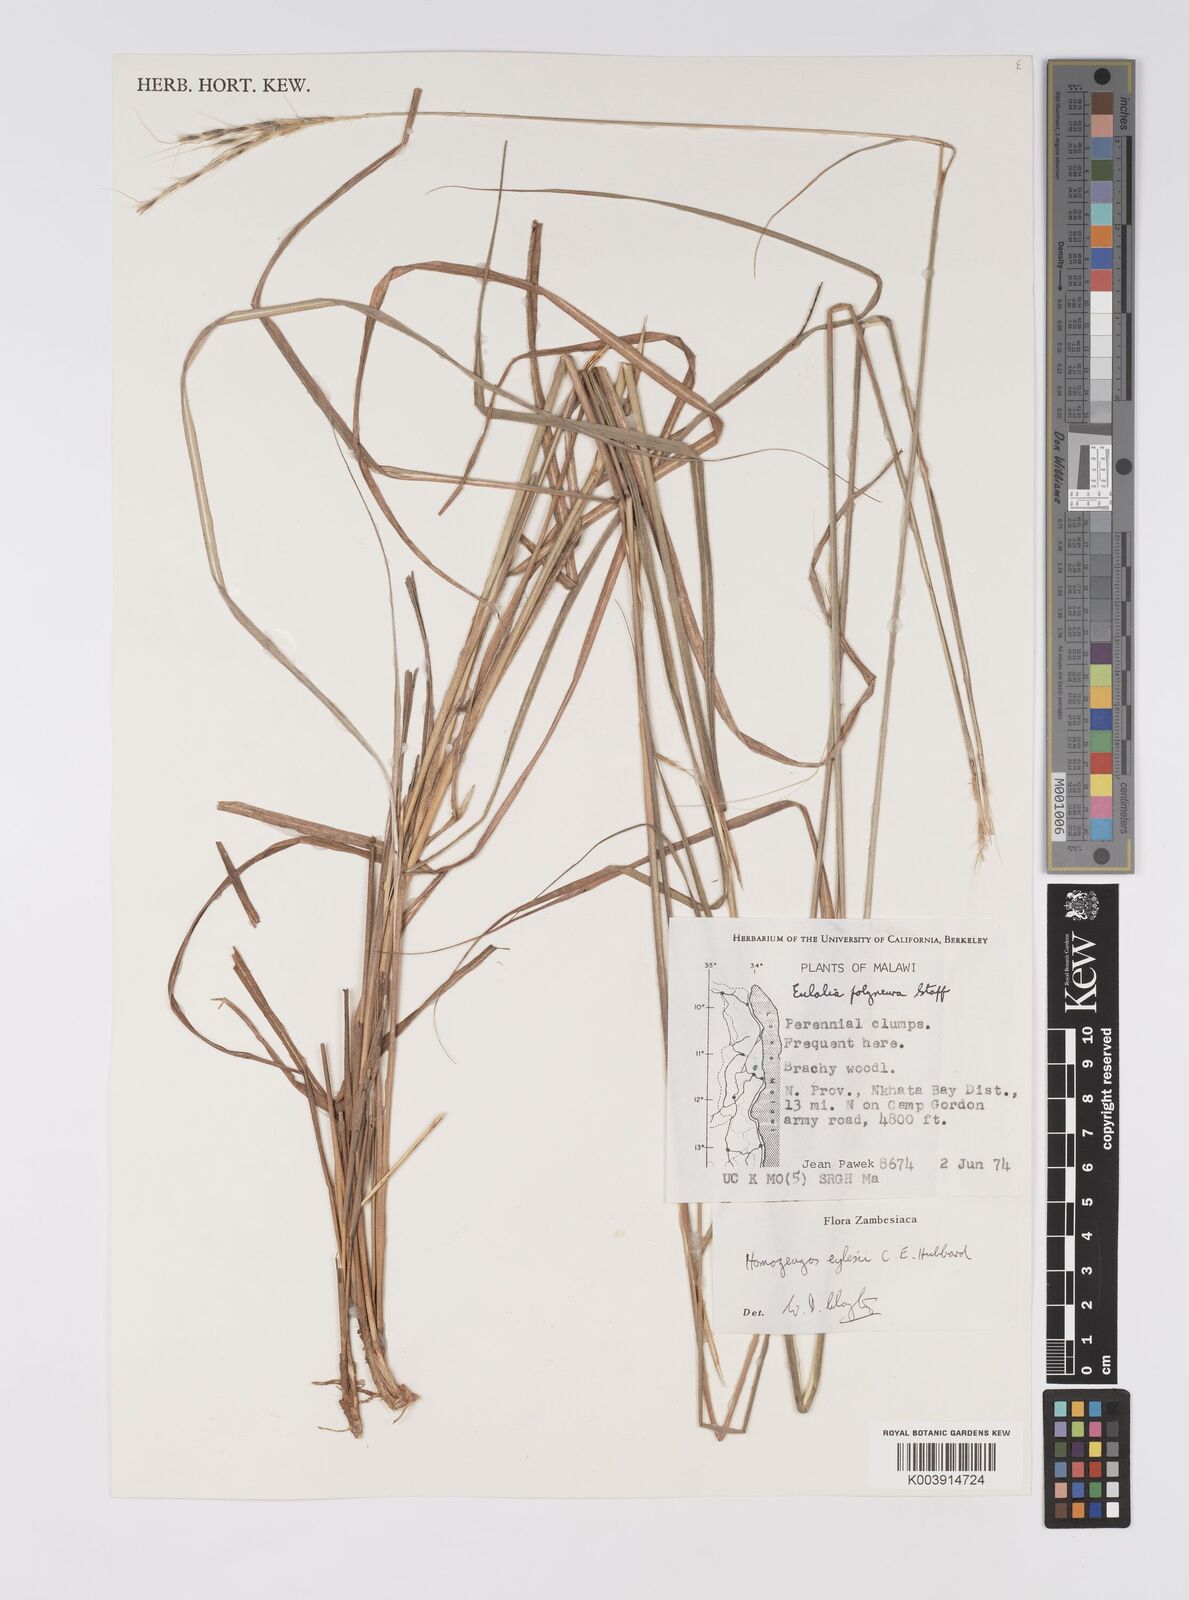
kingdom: Plantae
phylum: Tracheophyta
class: Liliopsida
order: Poales
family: Poaceae
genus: Homozeugos
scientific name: Homozeugos eylesii
